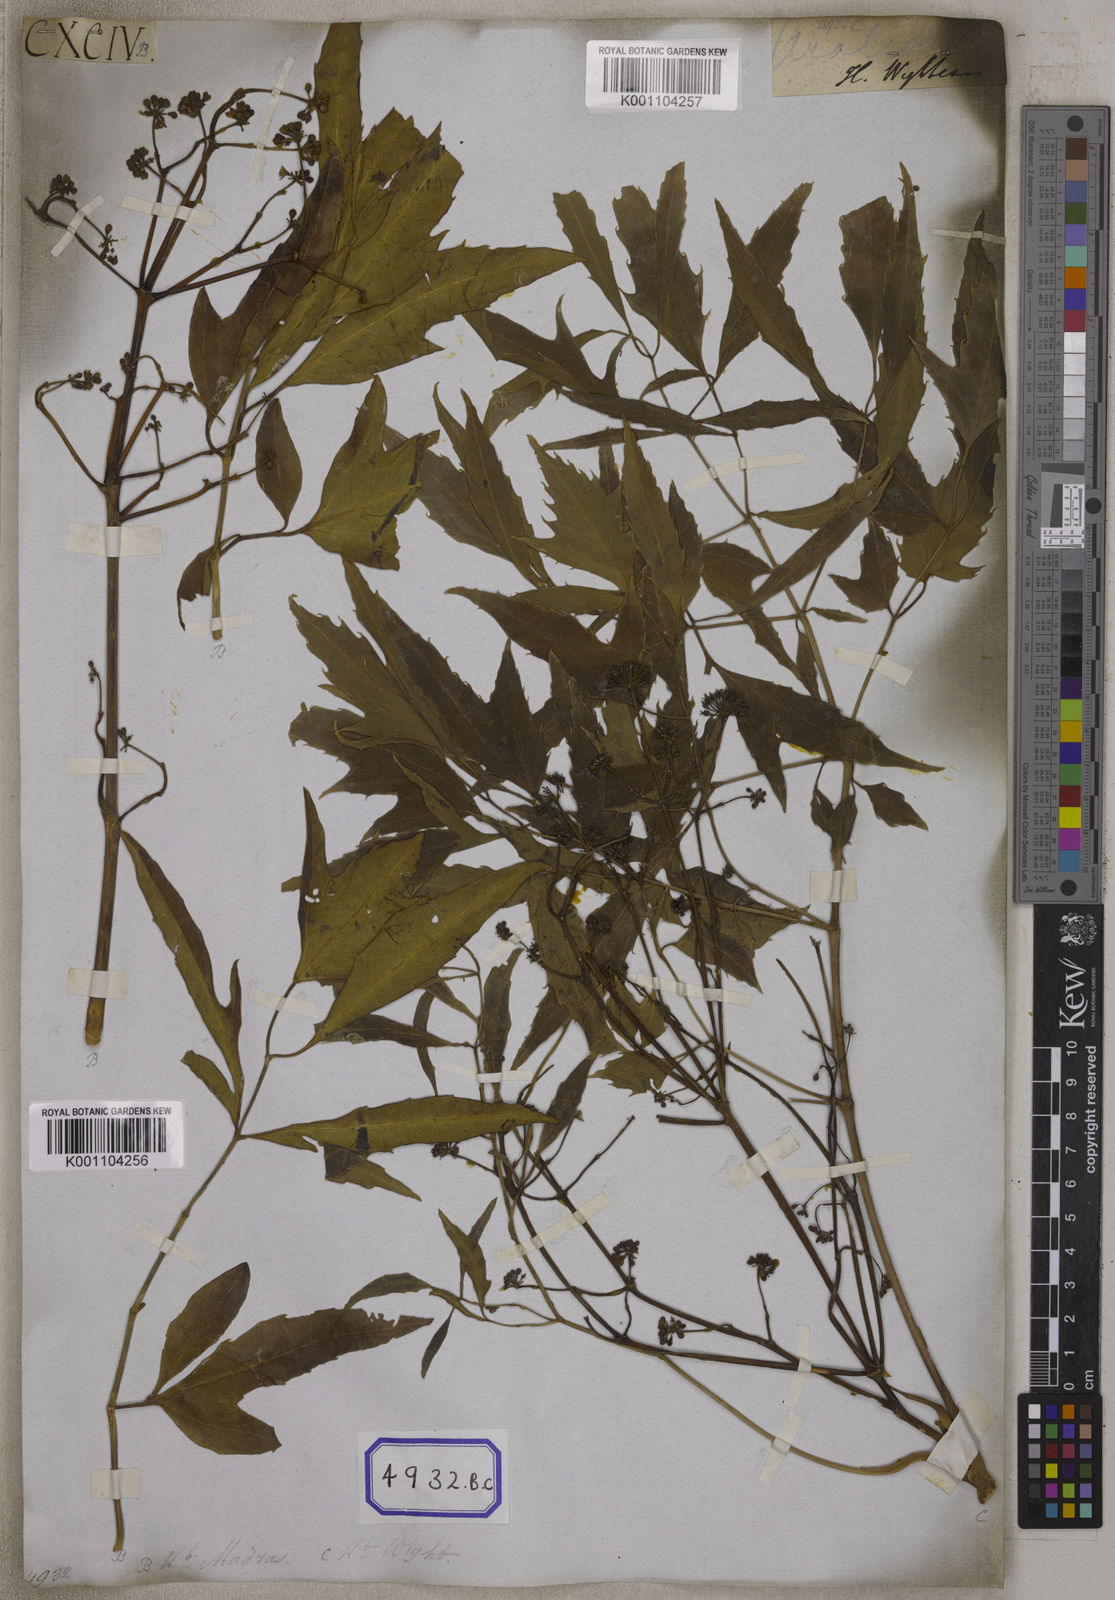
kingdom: Plantae
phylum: Tracheophyta
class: Magnoliopsida
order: Apiales
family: Araliaceae
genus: Polyscias
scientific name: Polyscias fruticosa
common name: Teatree
